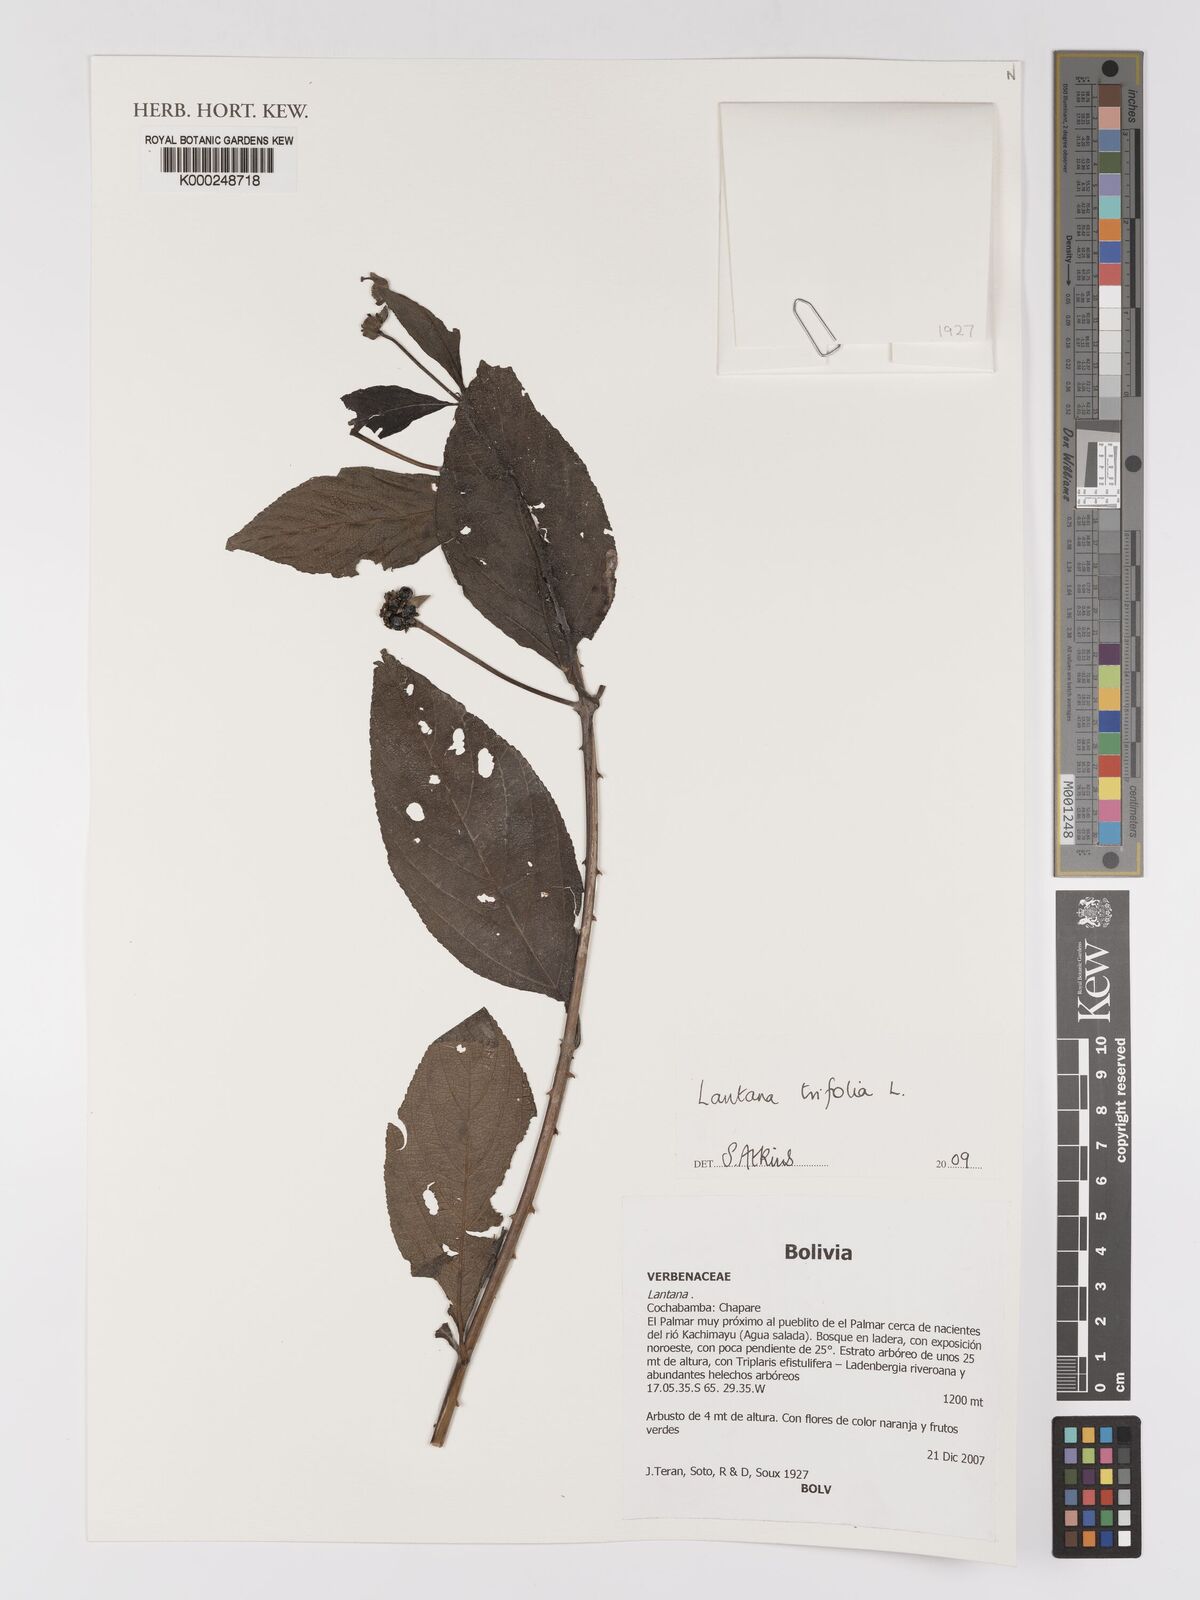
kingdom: Plantae
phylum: Tracheophyta
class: Magnoliopsida
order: Lamiales
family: Verbenaceae
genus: Lantana
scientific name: Lantana trifolia
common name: Sweet-sage
